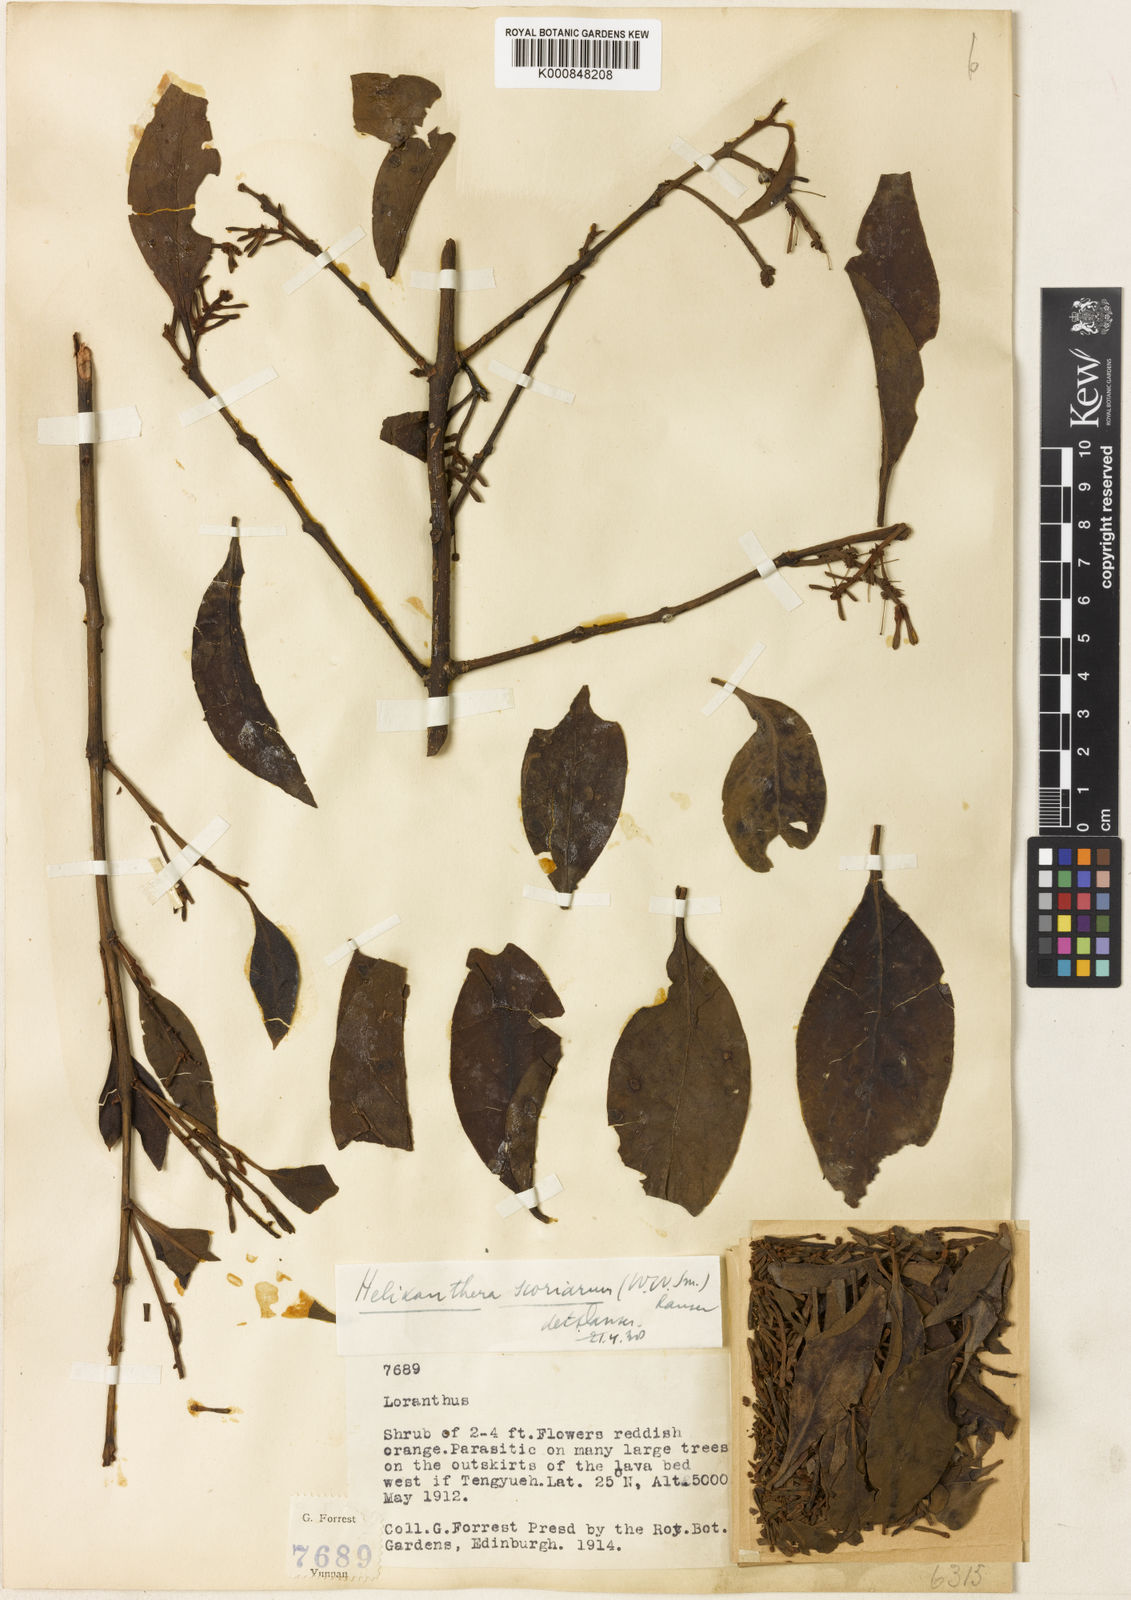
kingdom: Plantae
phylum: Tracheophyta
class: Magnoliopsida
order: Santalales
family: Loranthaceae
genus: Helixanthera
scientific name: Helixanthera scoriarum
